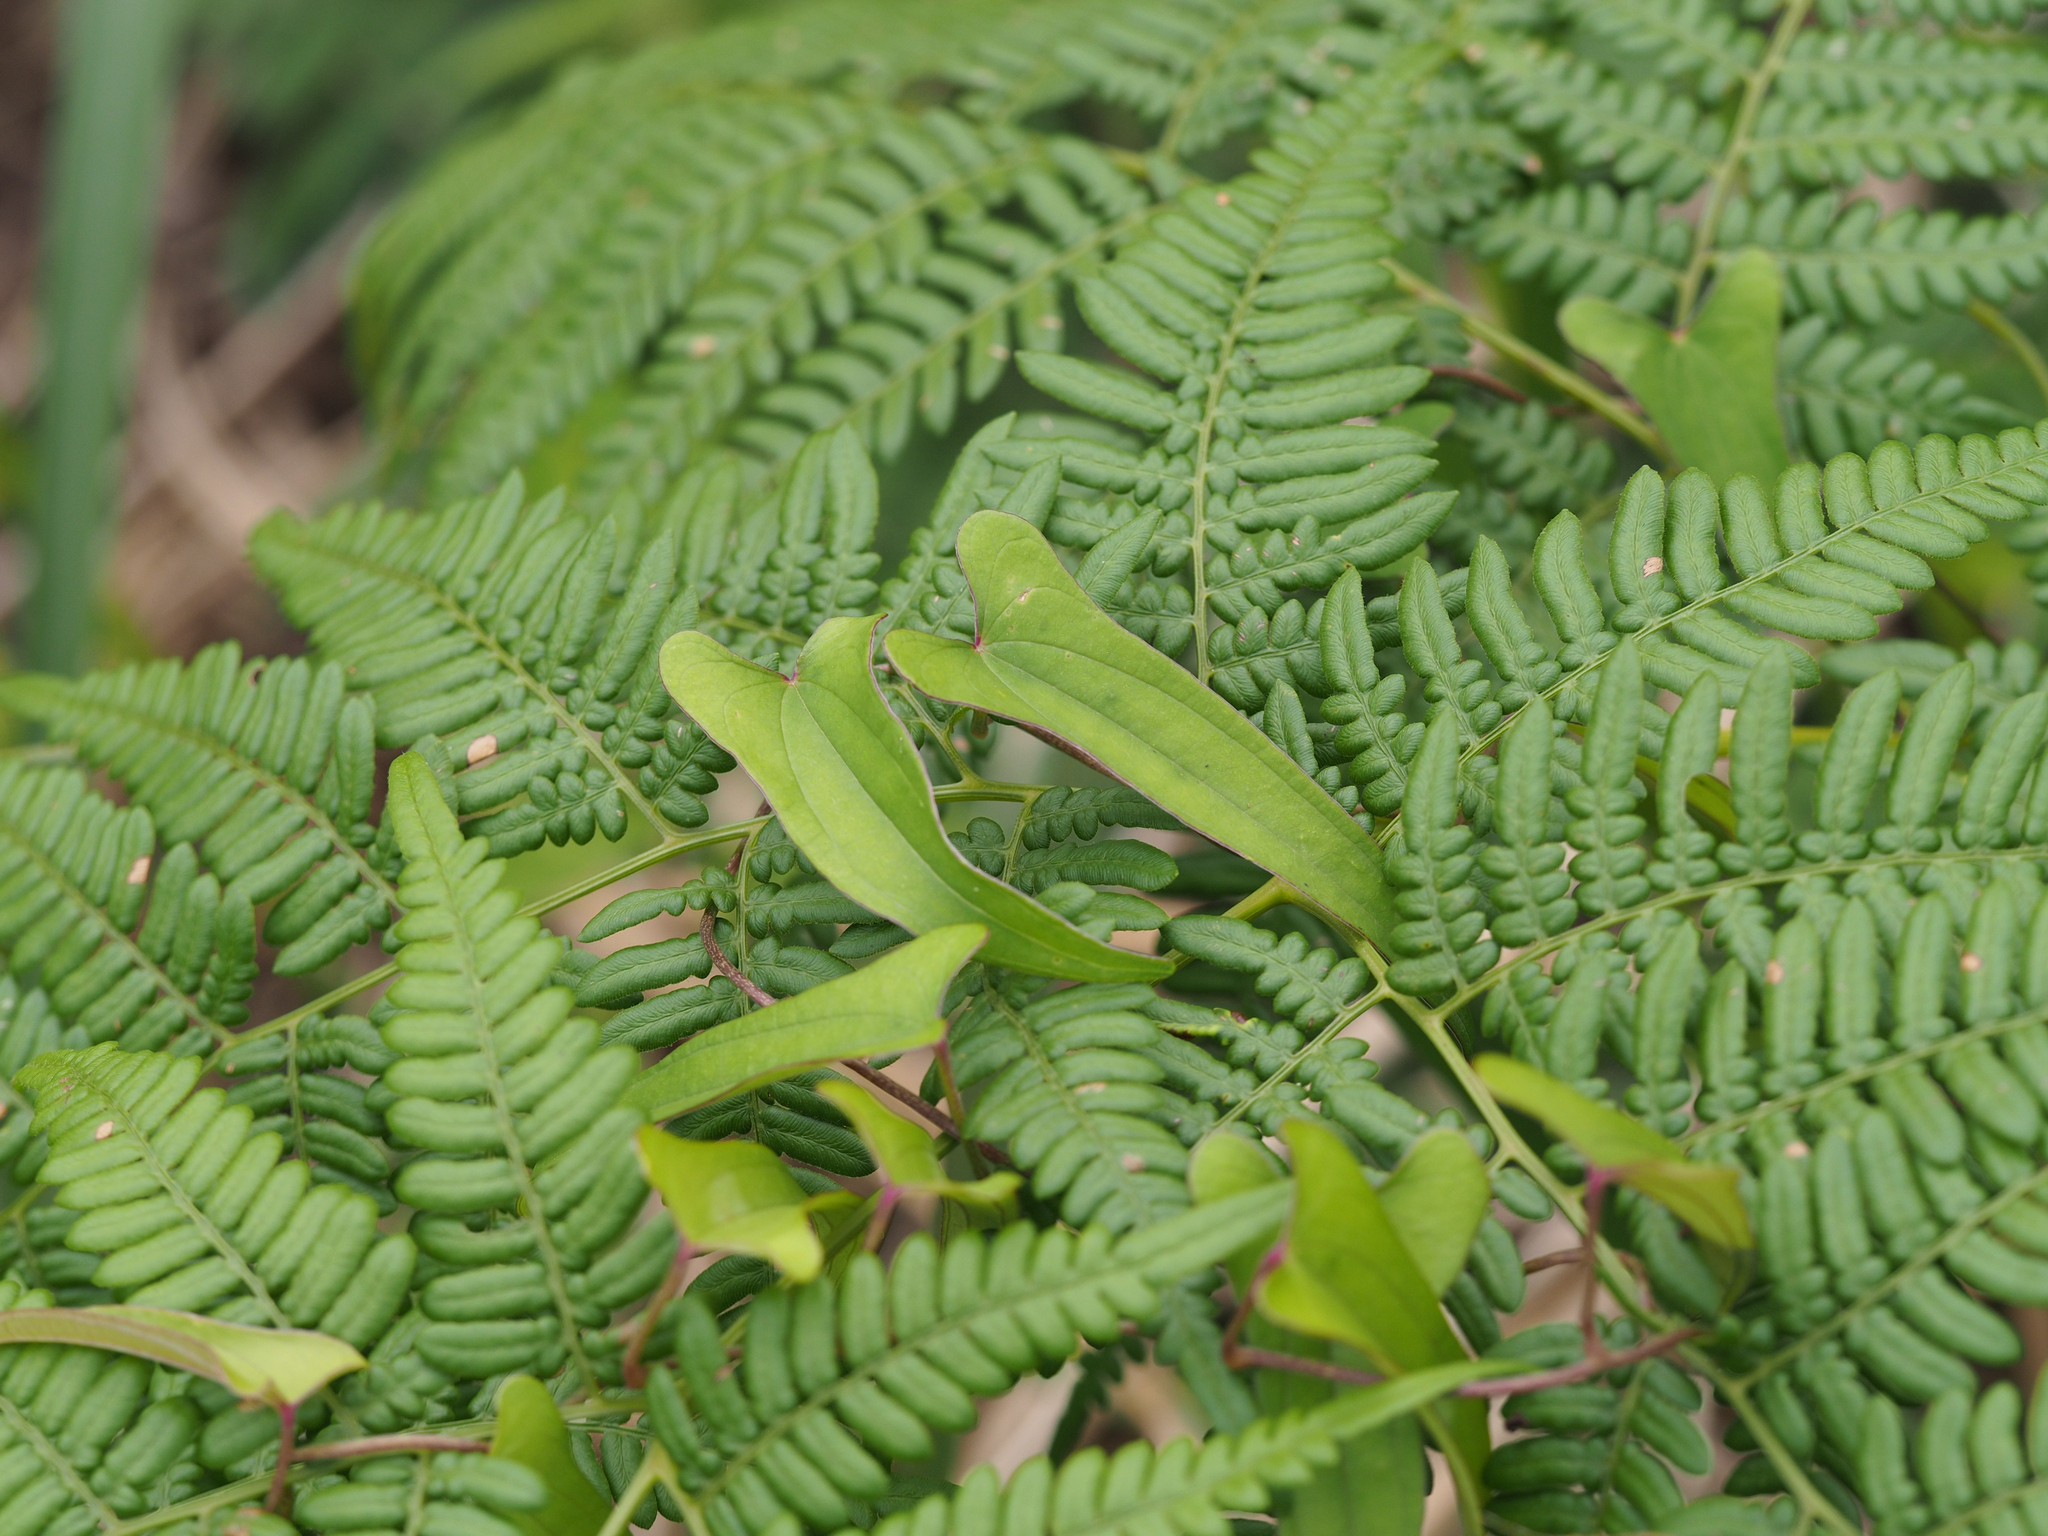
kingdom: Plantae
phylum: Tracheophyta
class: Liliopsida
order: Dioscoreales
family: Dioscoreaceae
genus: Dioscorea
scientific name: Dioscorea japonica
